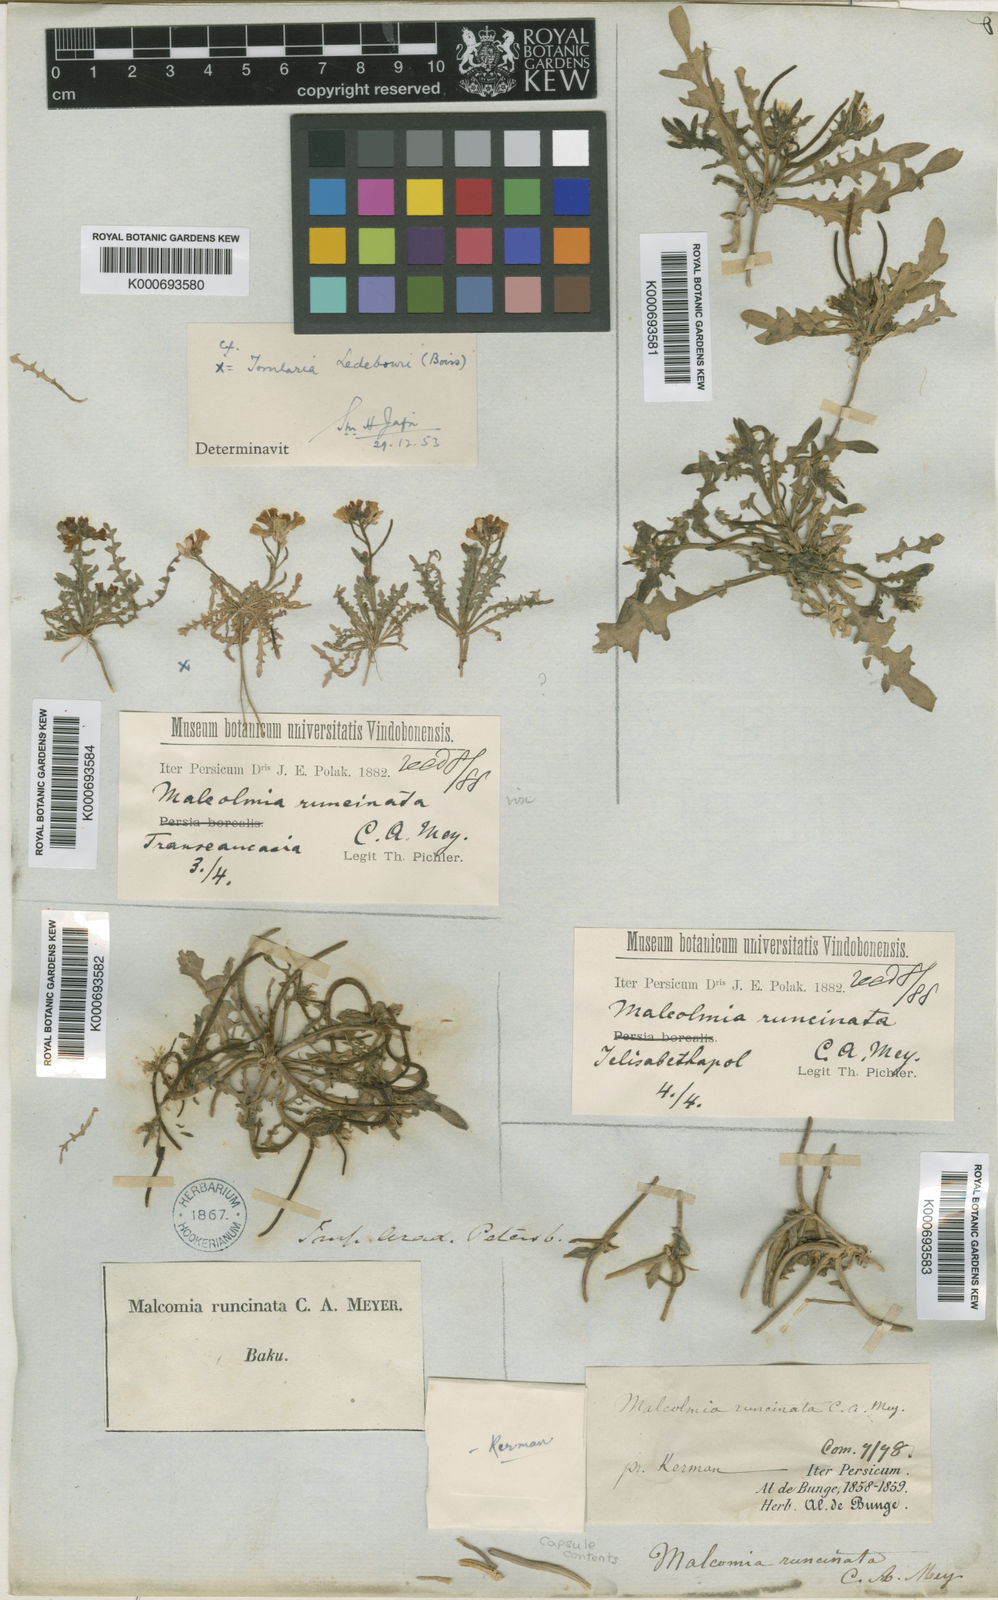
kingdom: Plantae
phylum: Tracheophyta
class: Magnoliopsida
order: Brassicales
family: Brassicaceae
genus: Strigosella
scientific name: Strigosella intermedia
